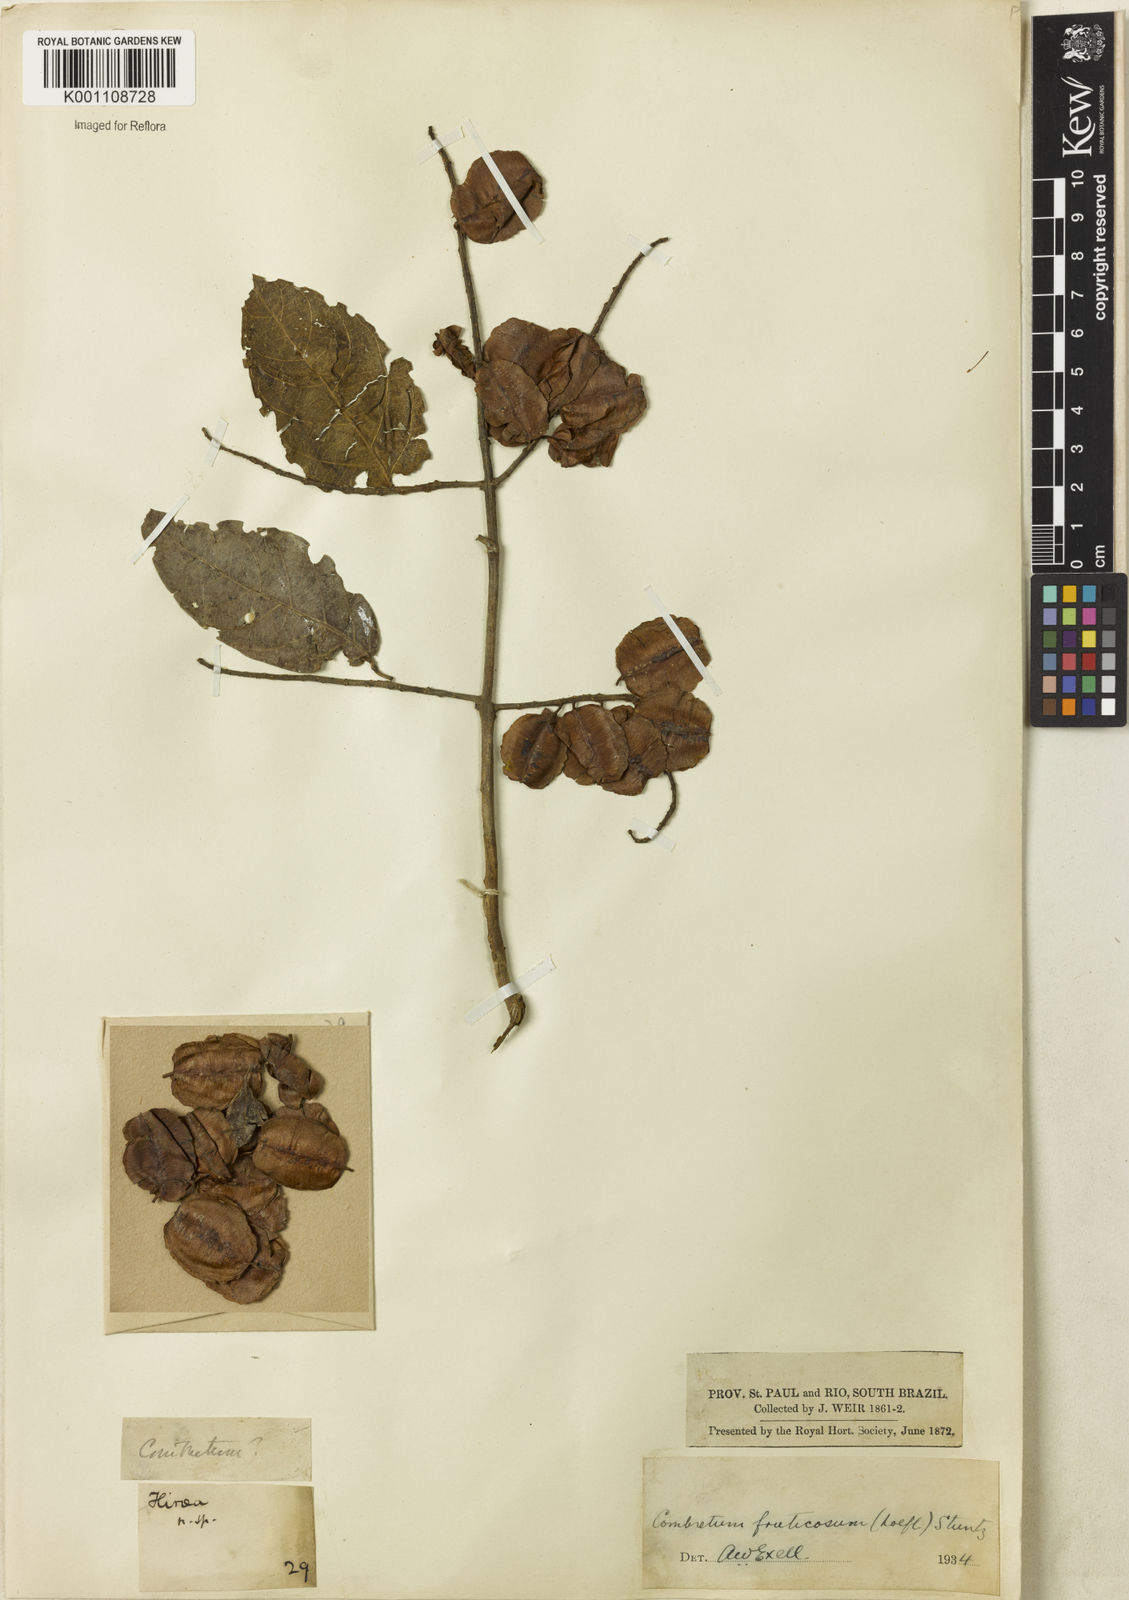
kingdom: Plantae
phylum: Tracheophyta
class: Magnoliopsida
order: Myrtales
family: Combretaceae
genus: Combretum
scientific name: Combretum fruticosum
